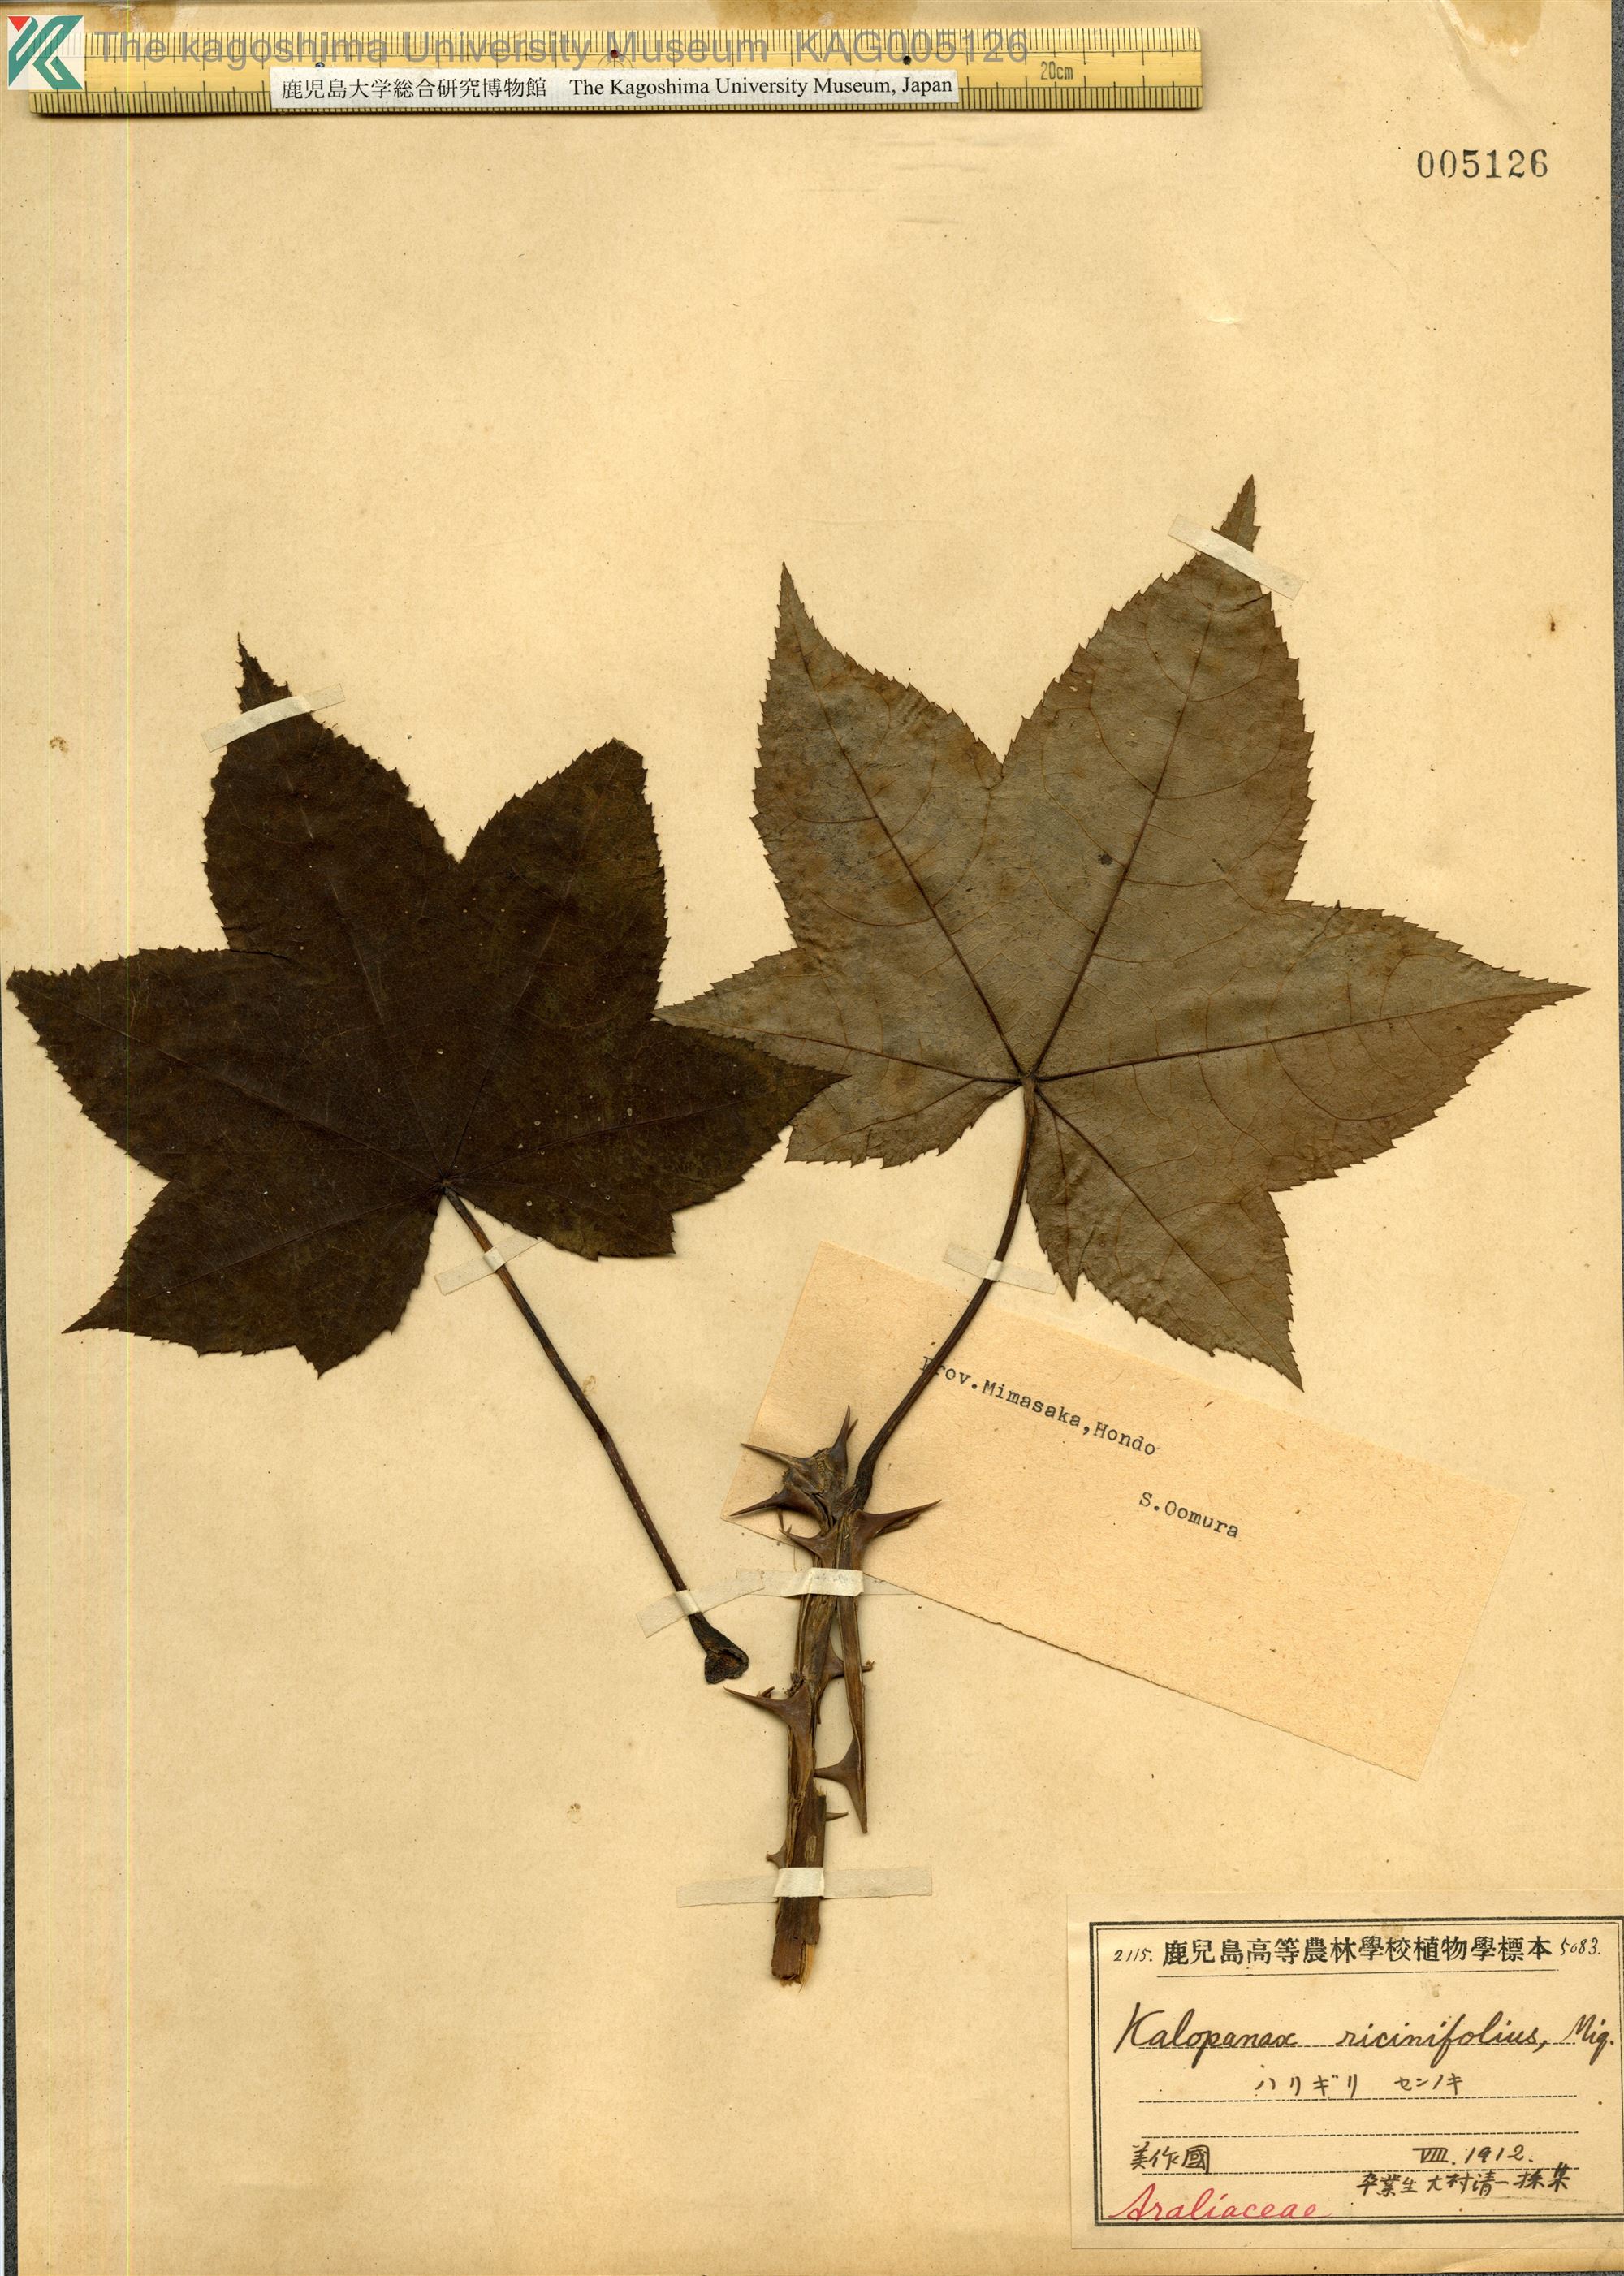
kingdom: Plantae
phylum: Tracheophyta
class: Magnoliopsida
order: Apiales
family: Araliaceae
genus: Kalopanax
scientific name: Kalopanax septemlobus
